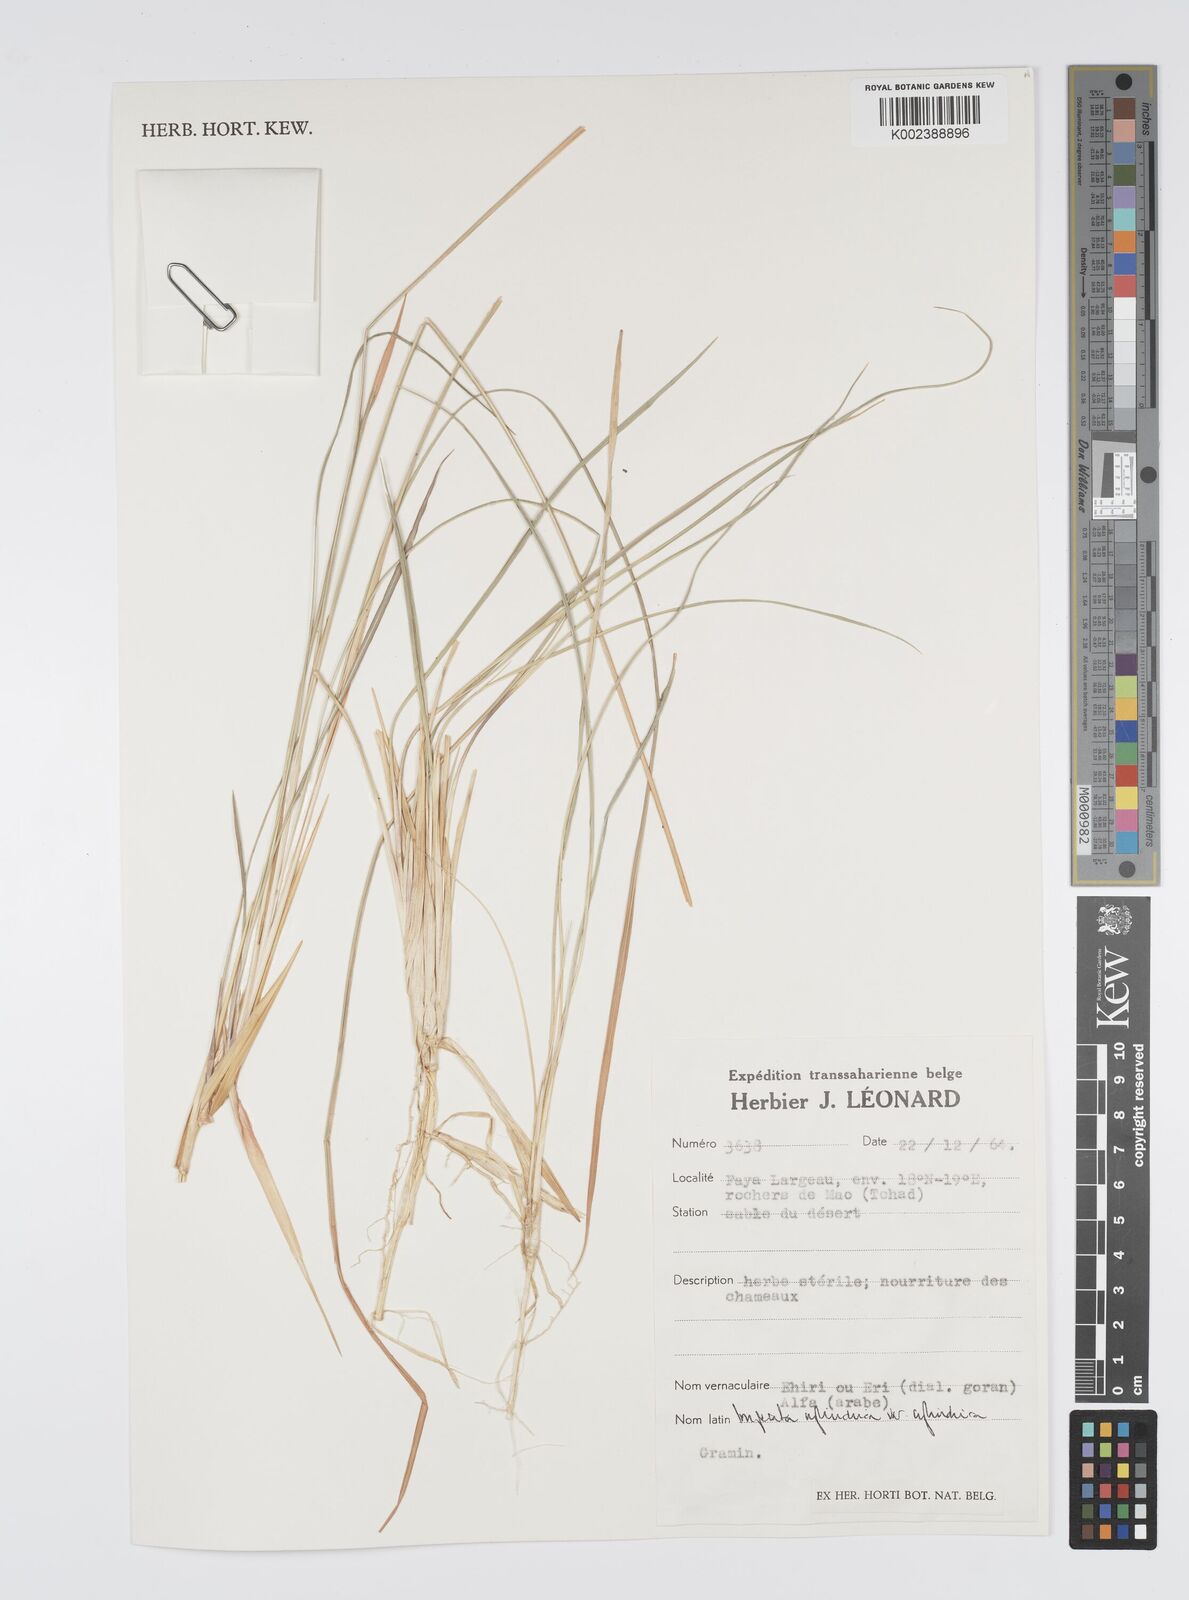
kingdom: Plantae
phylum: Tracheophyta
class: Liliopsida
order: Poales
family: Poaceae
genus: Imperata
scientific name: Imperata cylindrica
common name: Cogongrass
